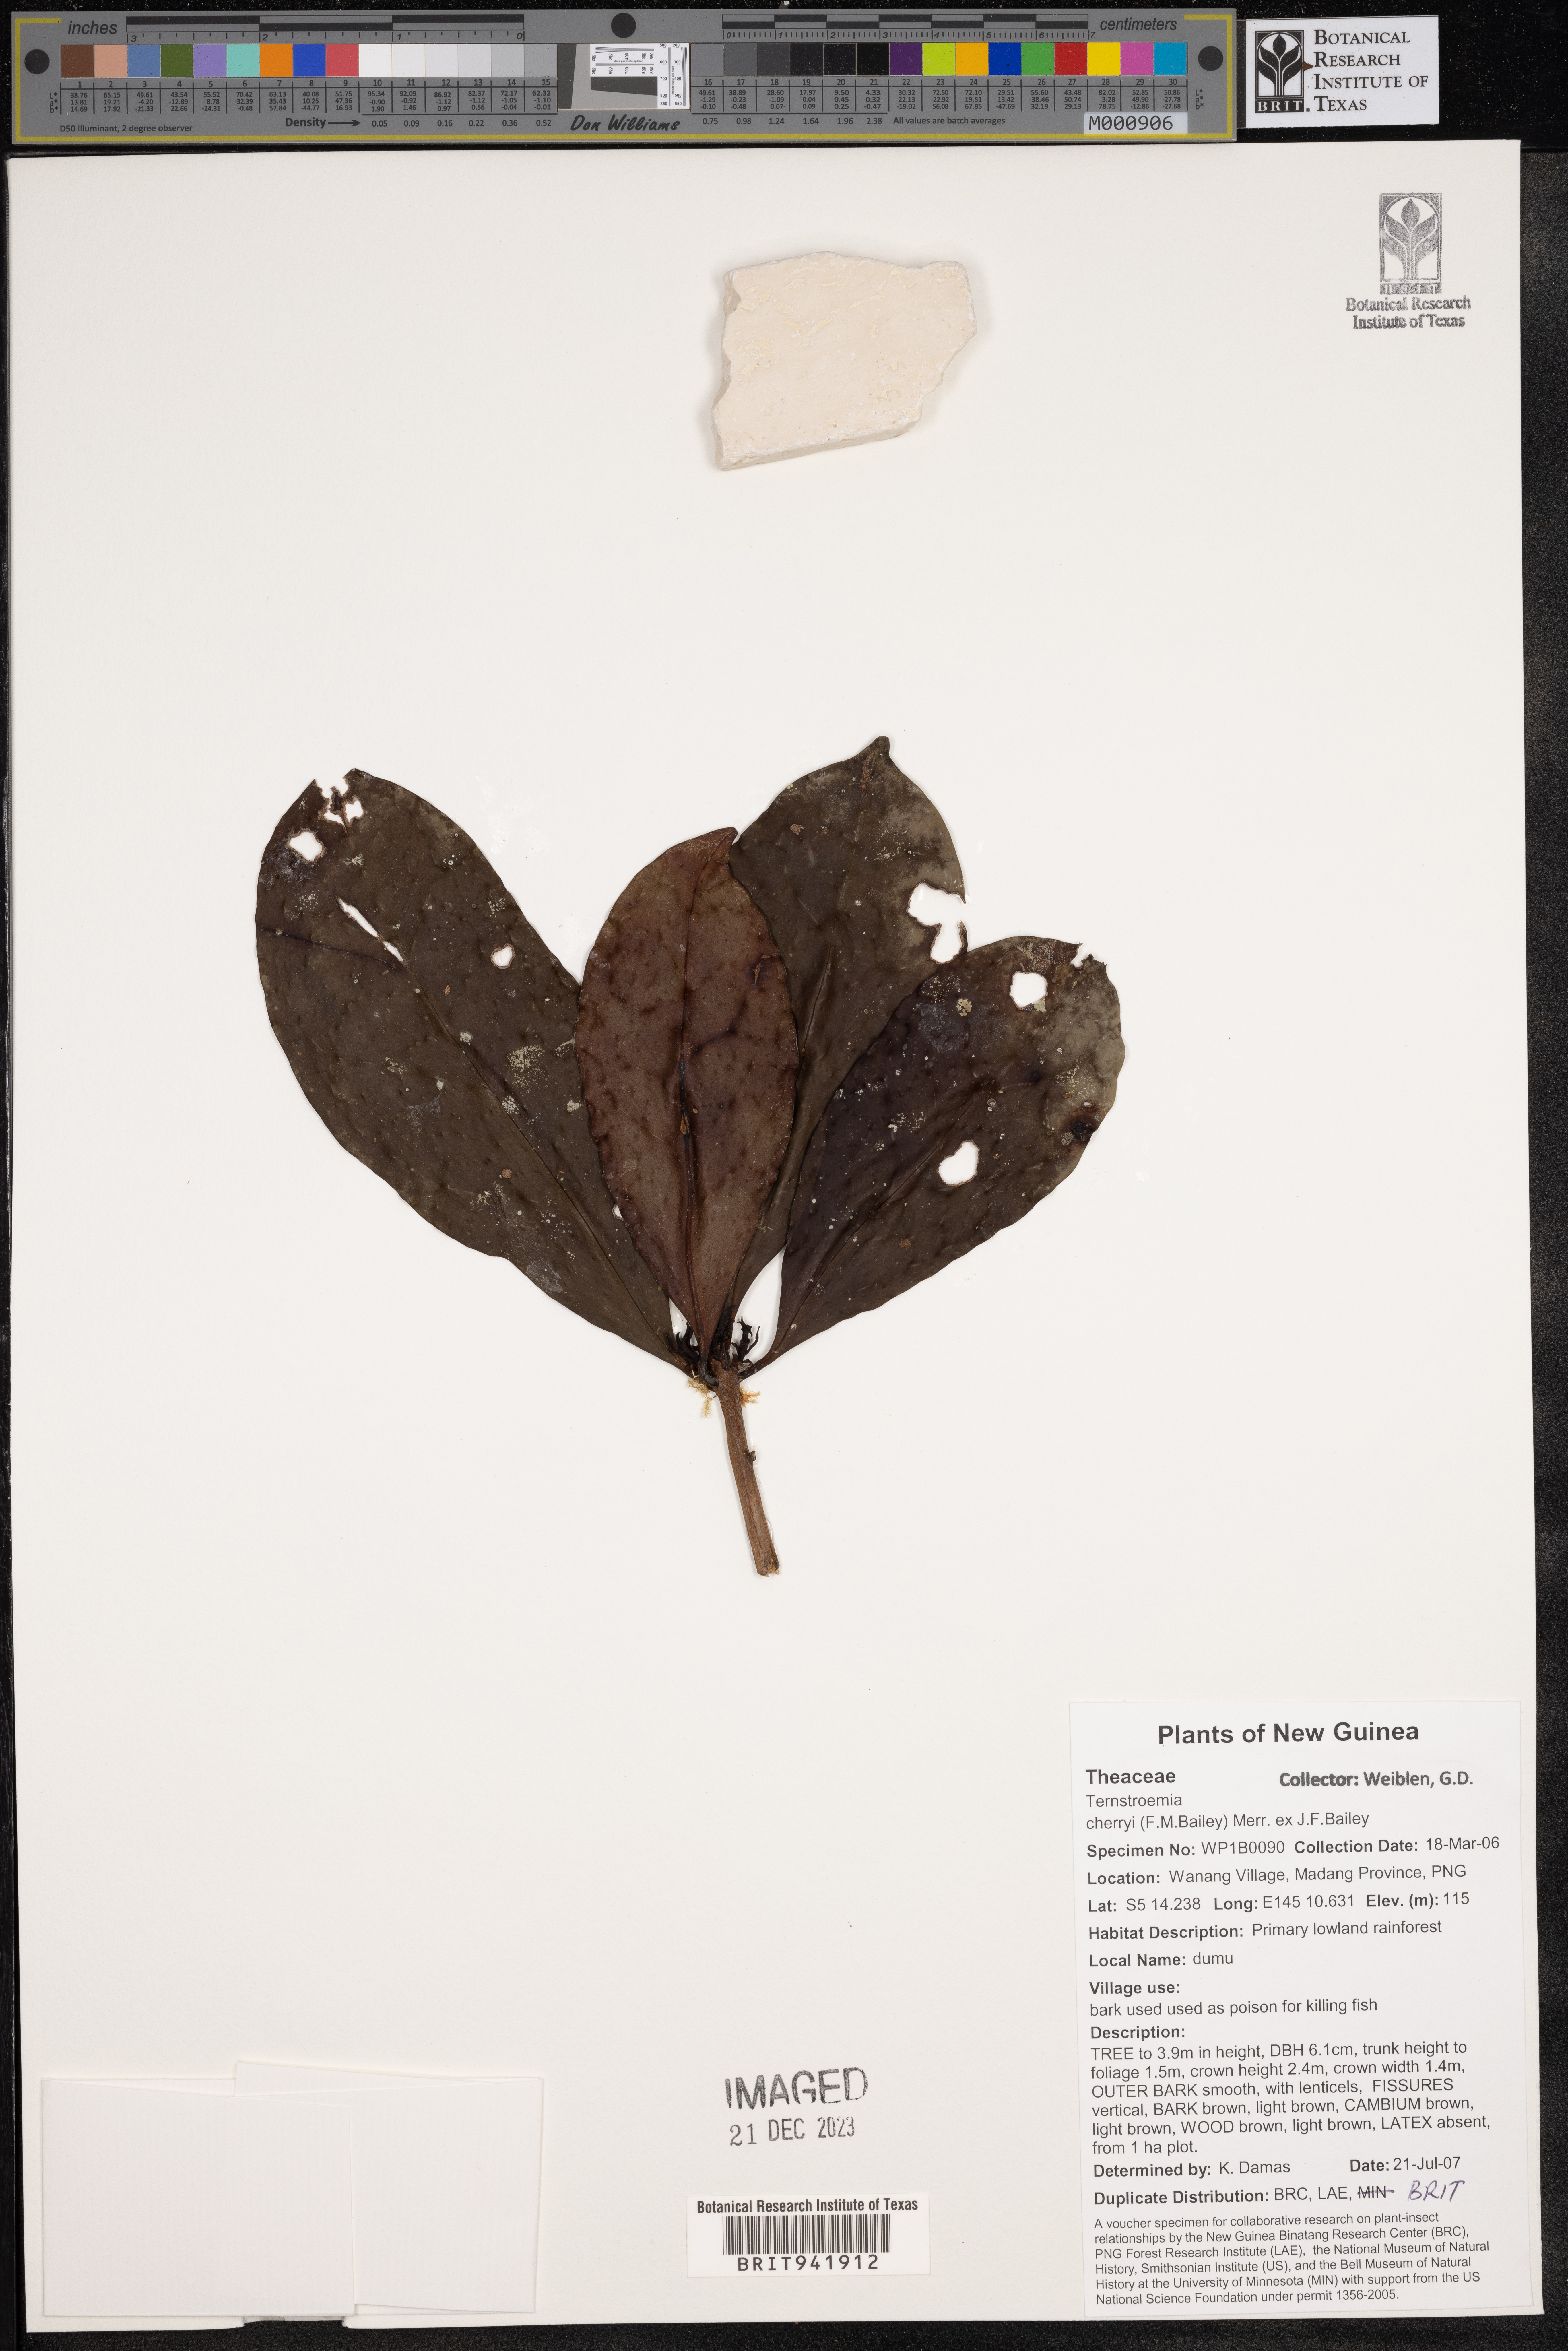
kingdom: Plantae
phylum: Tracheophyta
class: Magnoliopsida
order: Ericales
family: Theaceae
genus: Terustroemia
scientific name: Terustroemia
